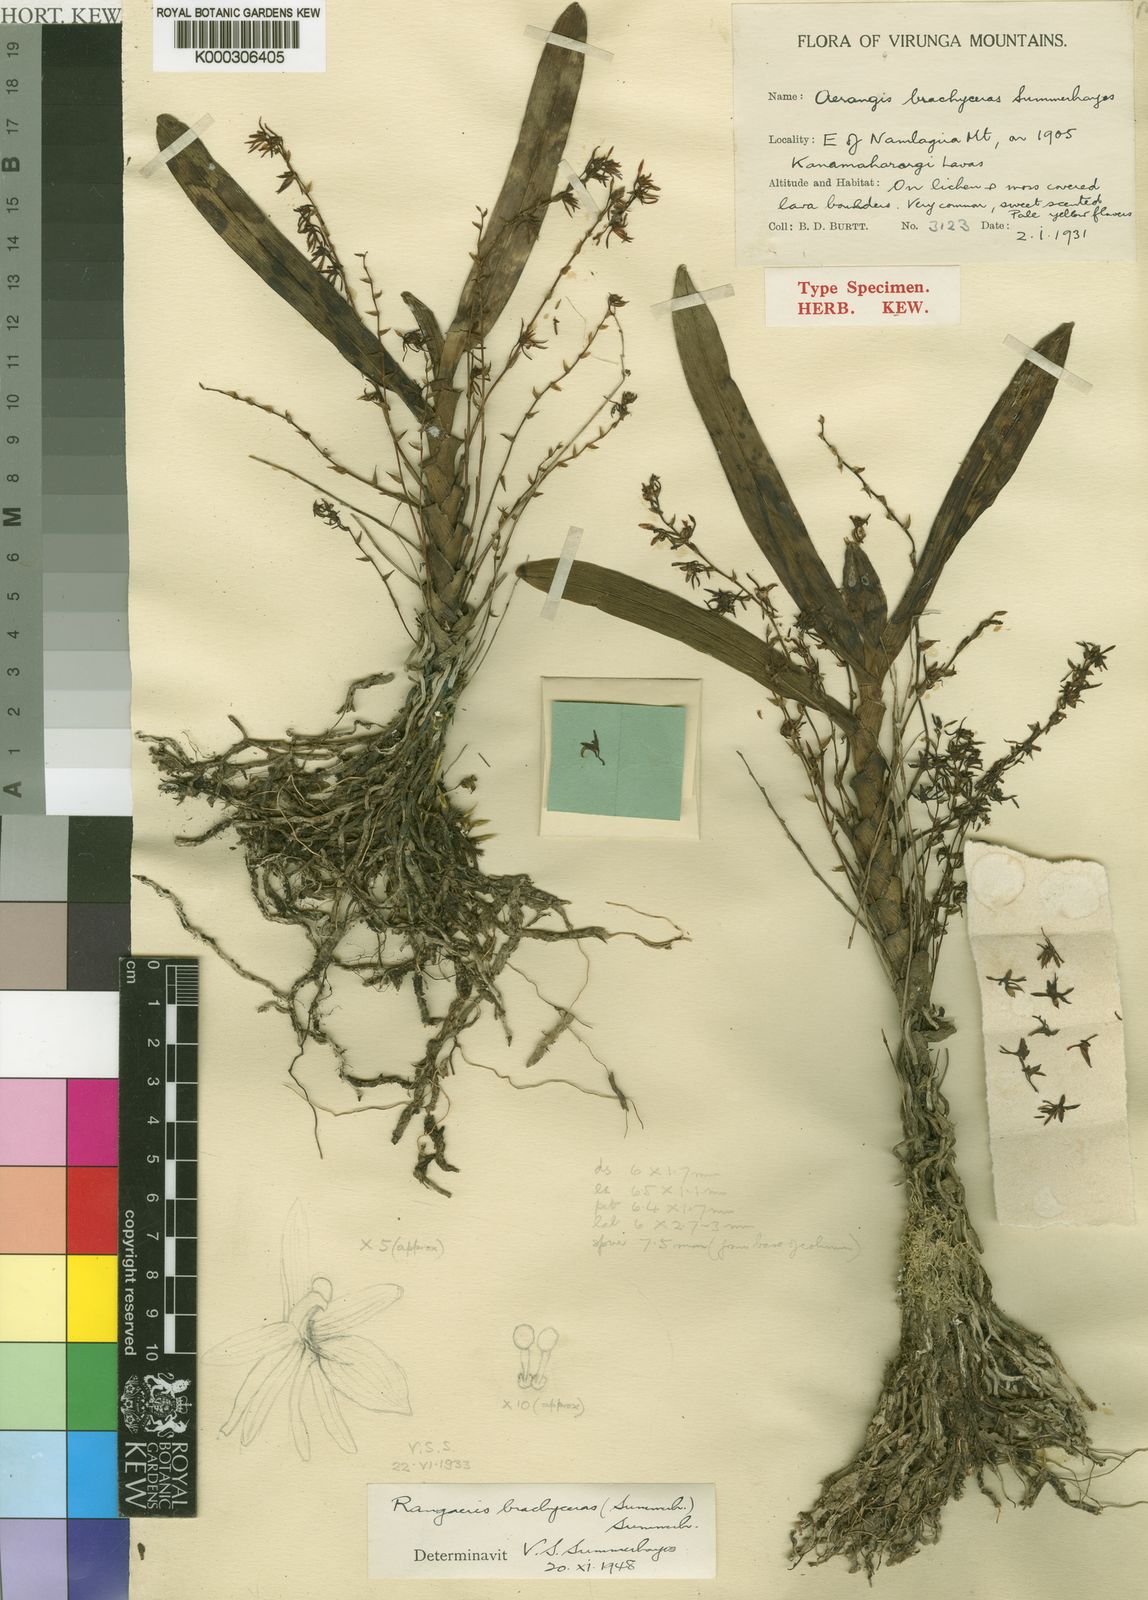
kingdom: Plantae
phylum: Tracheophyta
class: Liliopsida
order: Asparagales
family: Orchidaceae
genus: Rhipidoglossum
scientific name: Rhipidoglossum brachyceras
